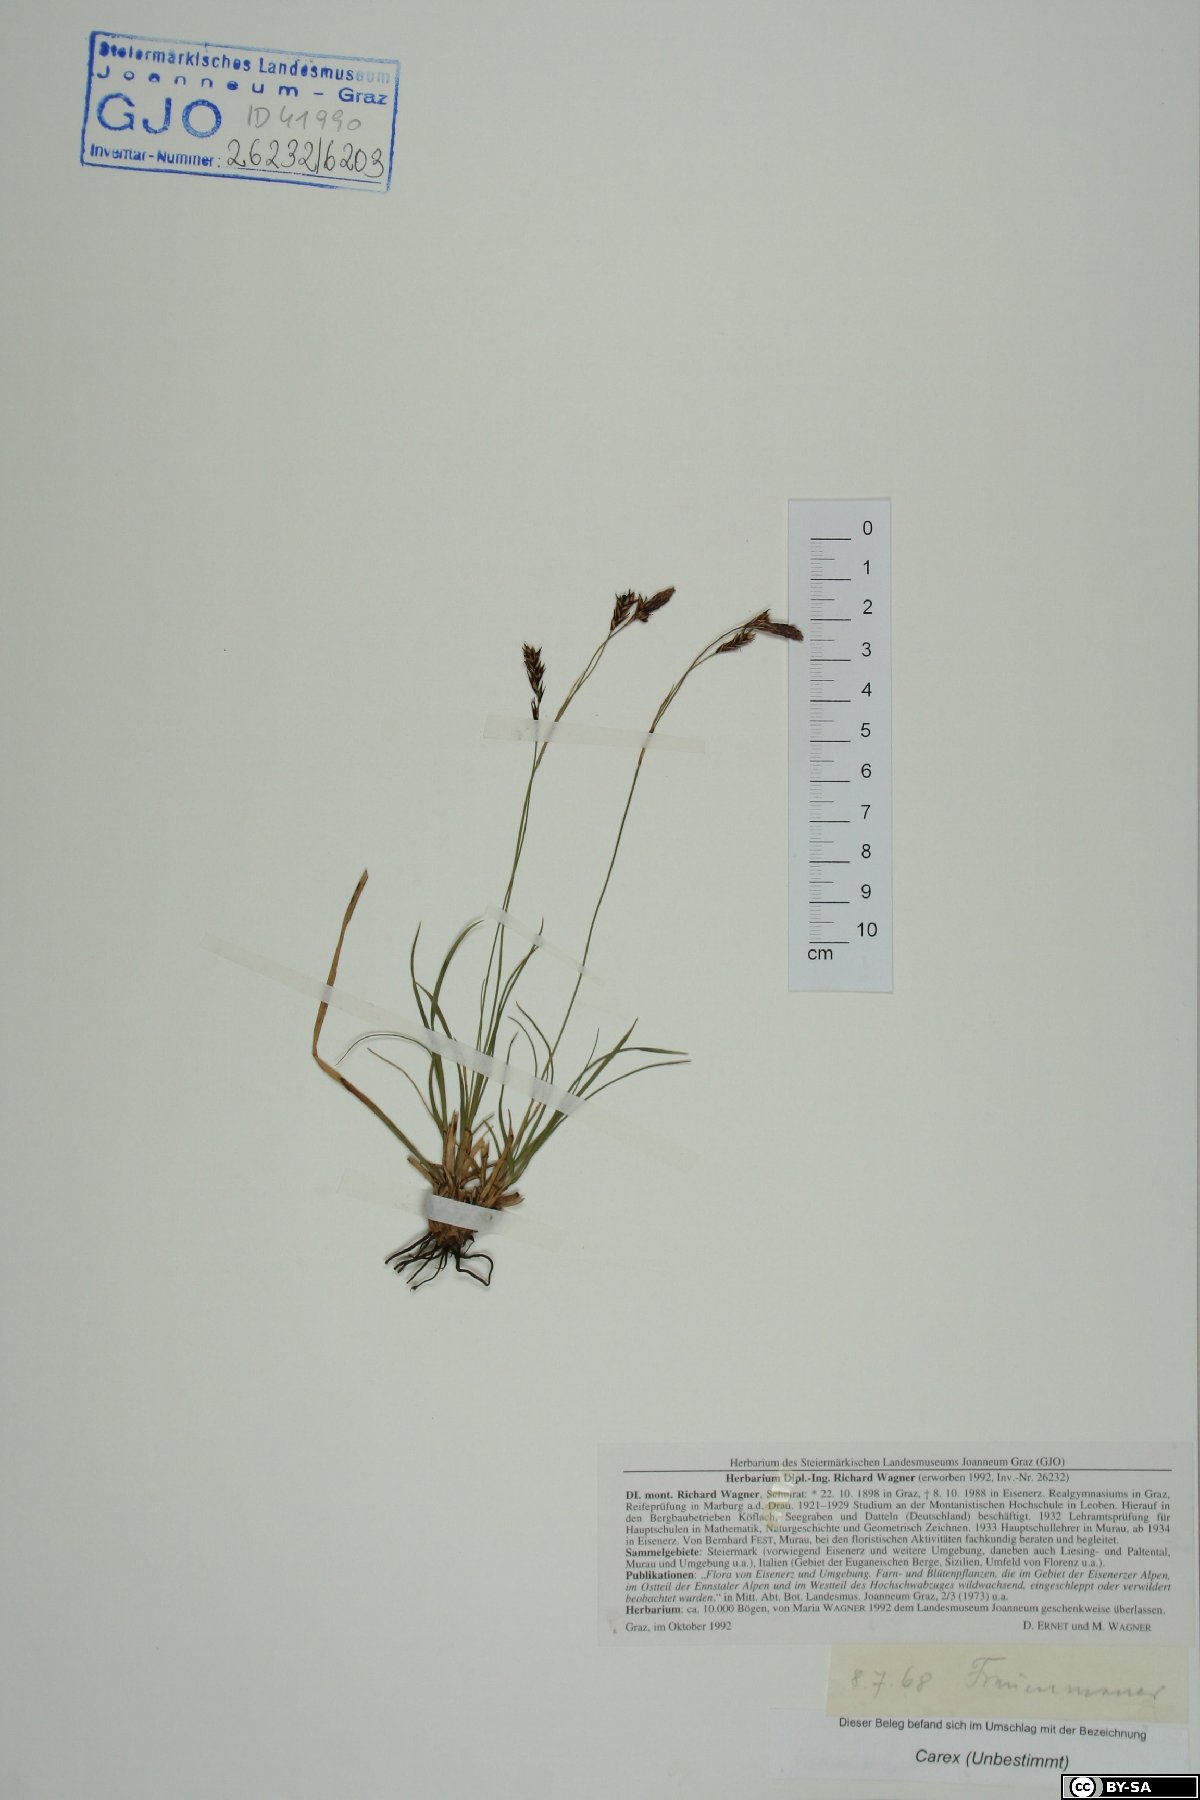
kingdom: Plantae
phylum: Tracheophyta
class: Liliopsida
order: Poales
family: Cyperaceae
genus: Carex
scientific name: Carex
